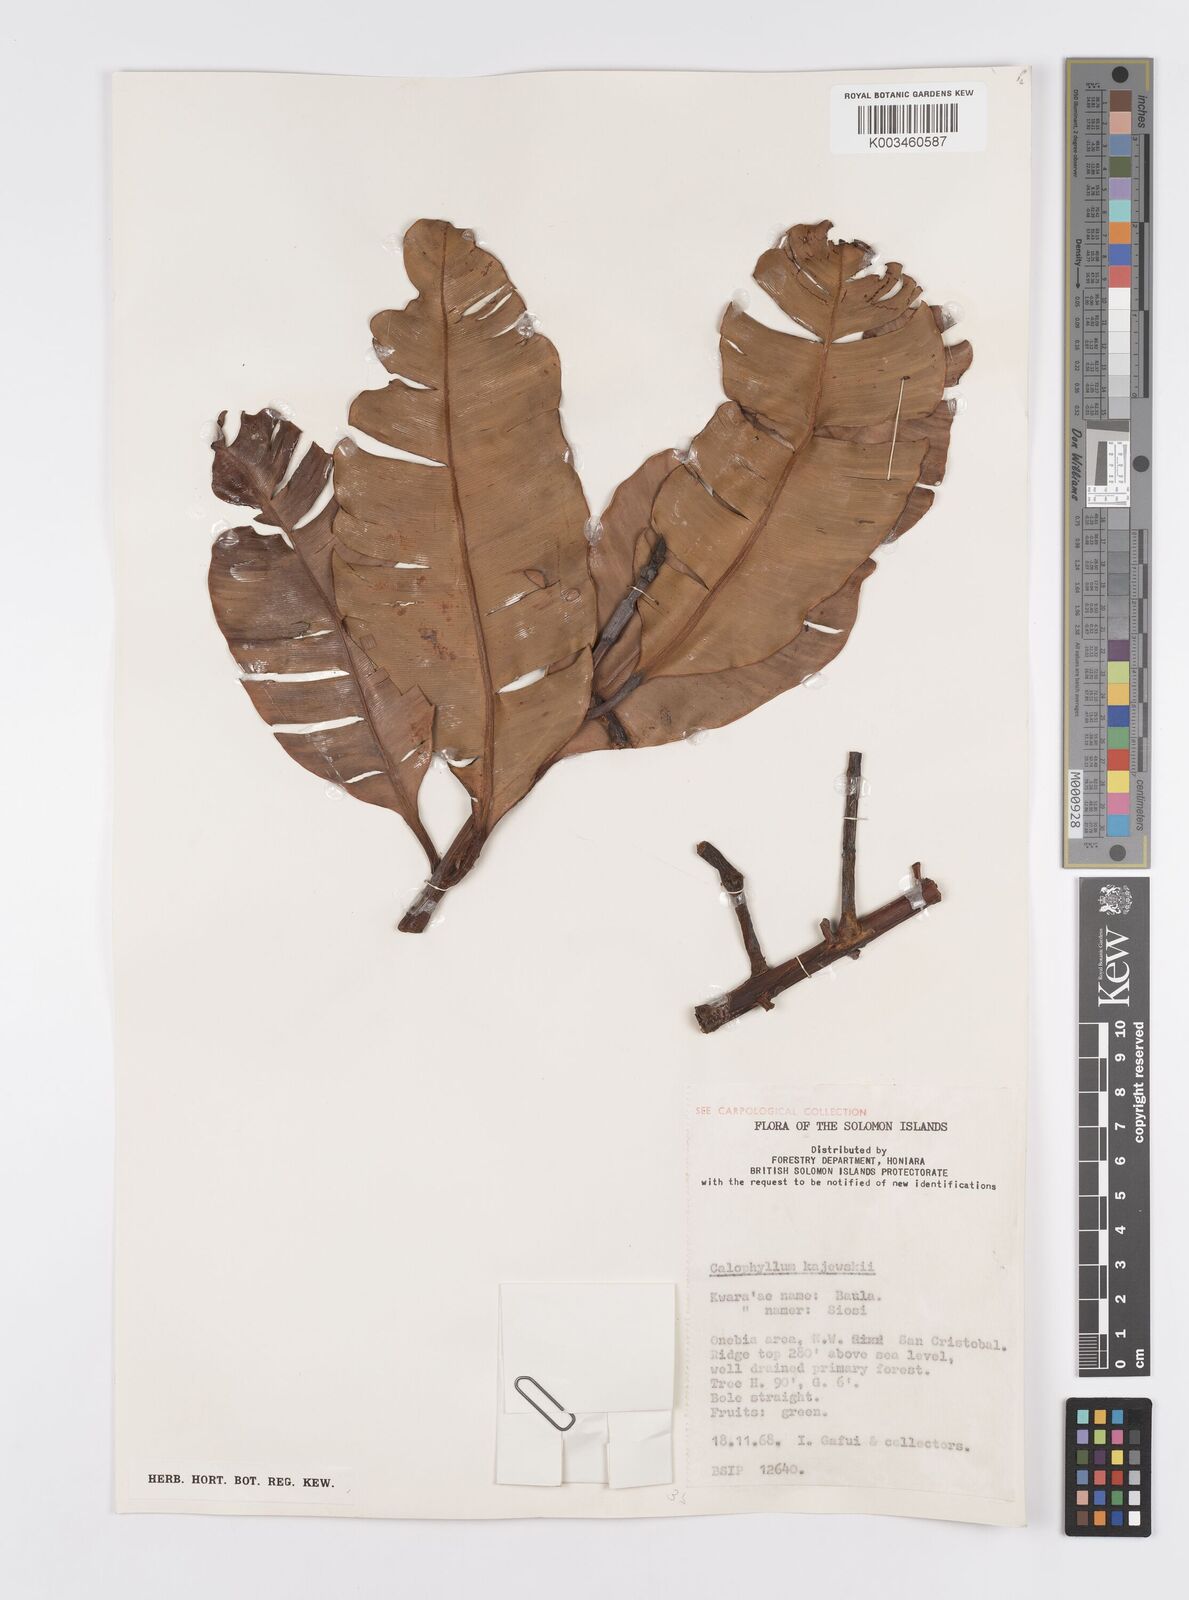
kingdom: Plantae
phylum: Tracheophyta
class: Magnoliopsida
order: Malpighiales
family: Calophyllaceae
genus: Calophyllum
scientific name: Calophyllum peekelii
